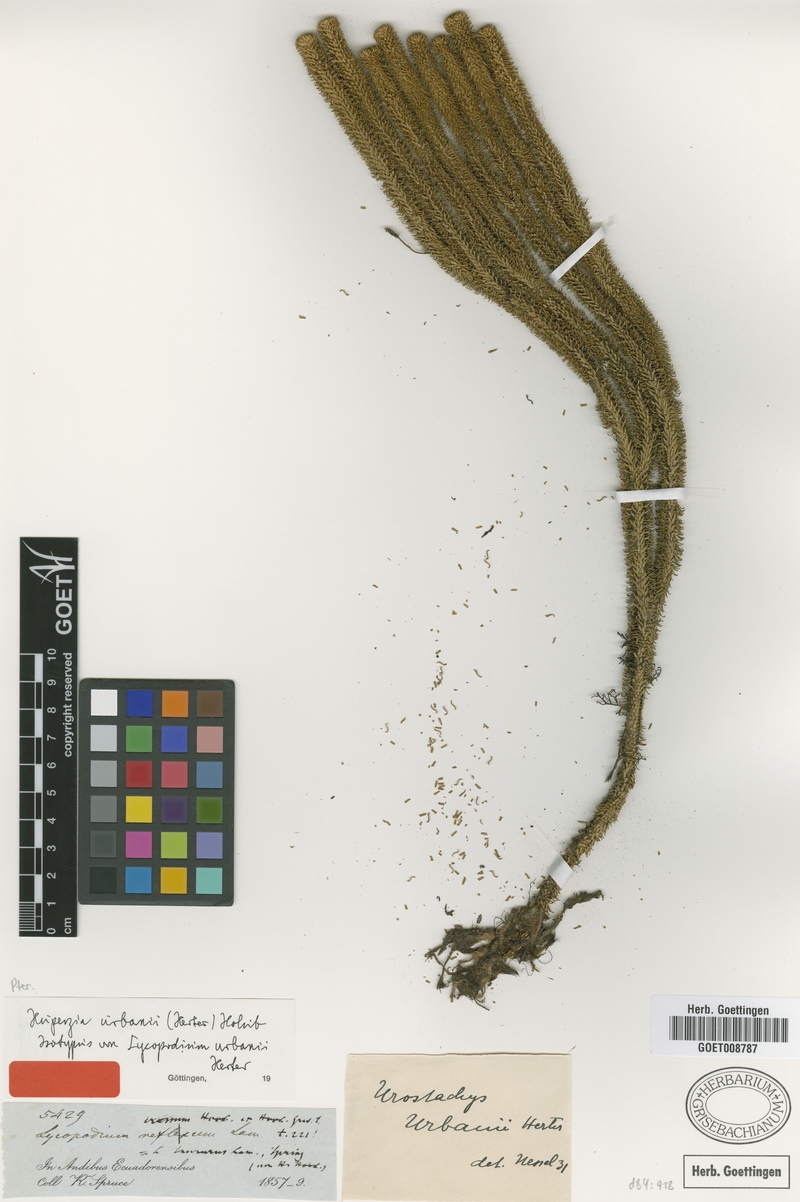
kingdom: Plantae
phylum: Tracheophyta
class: Lycopodiopsida
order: Lycopodiales
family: Lycopodiaceae
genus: Phlegmariurus
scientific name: Phlegmariurus urbanii
